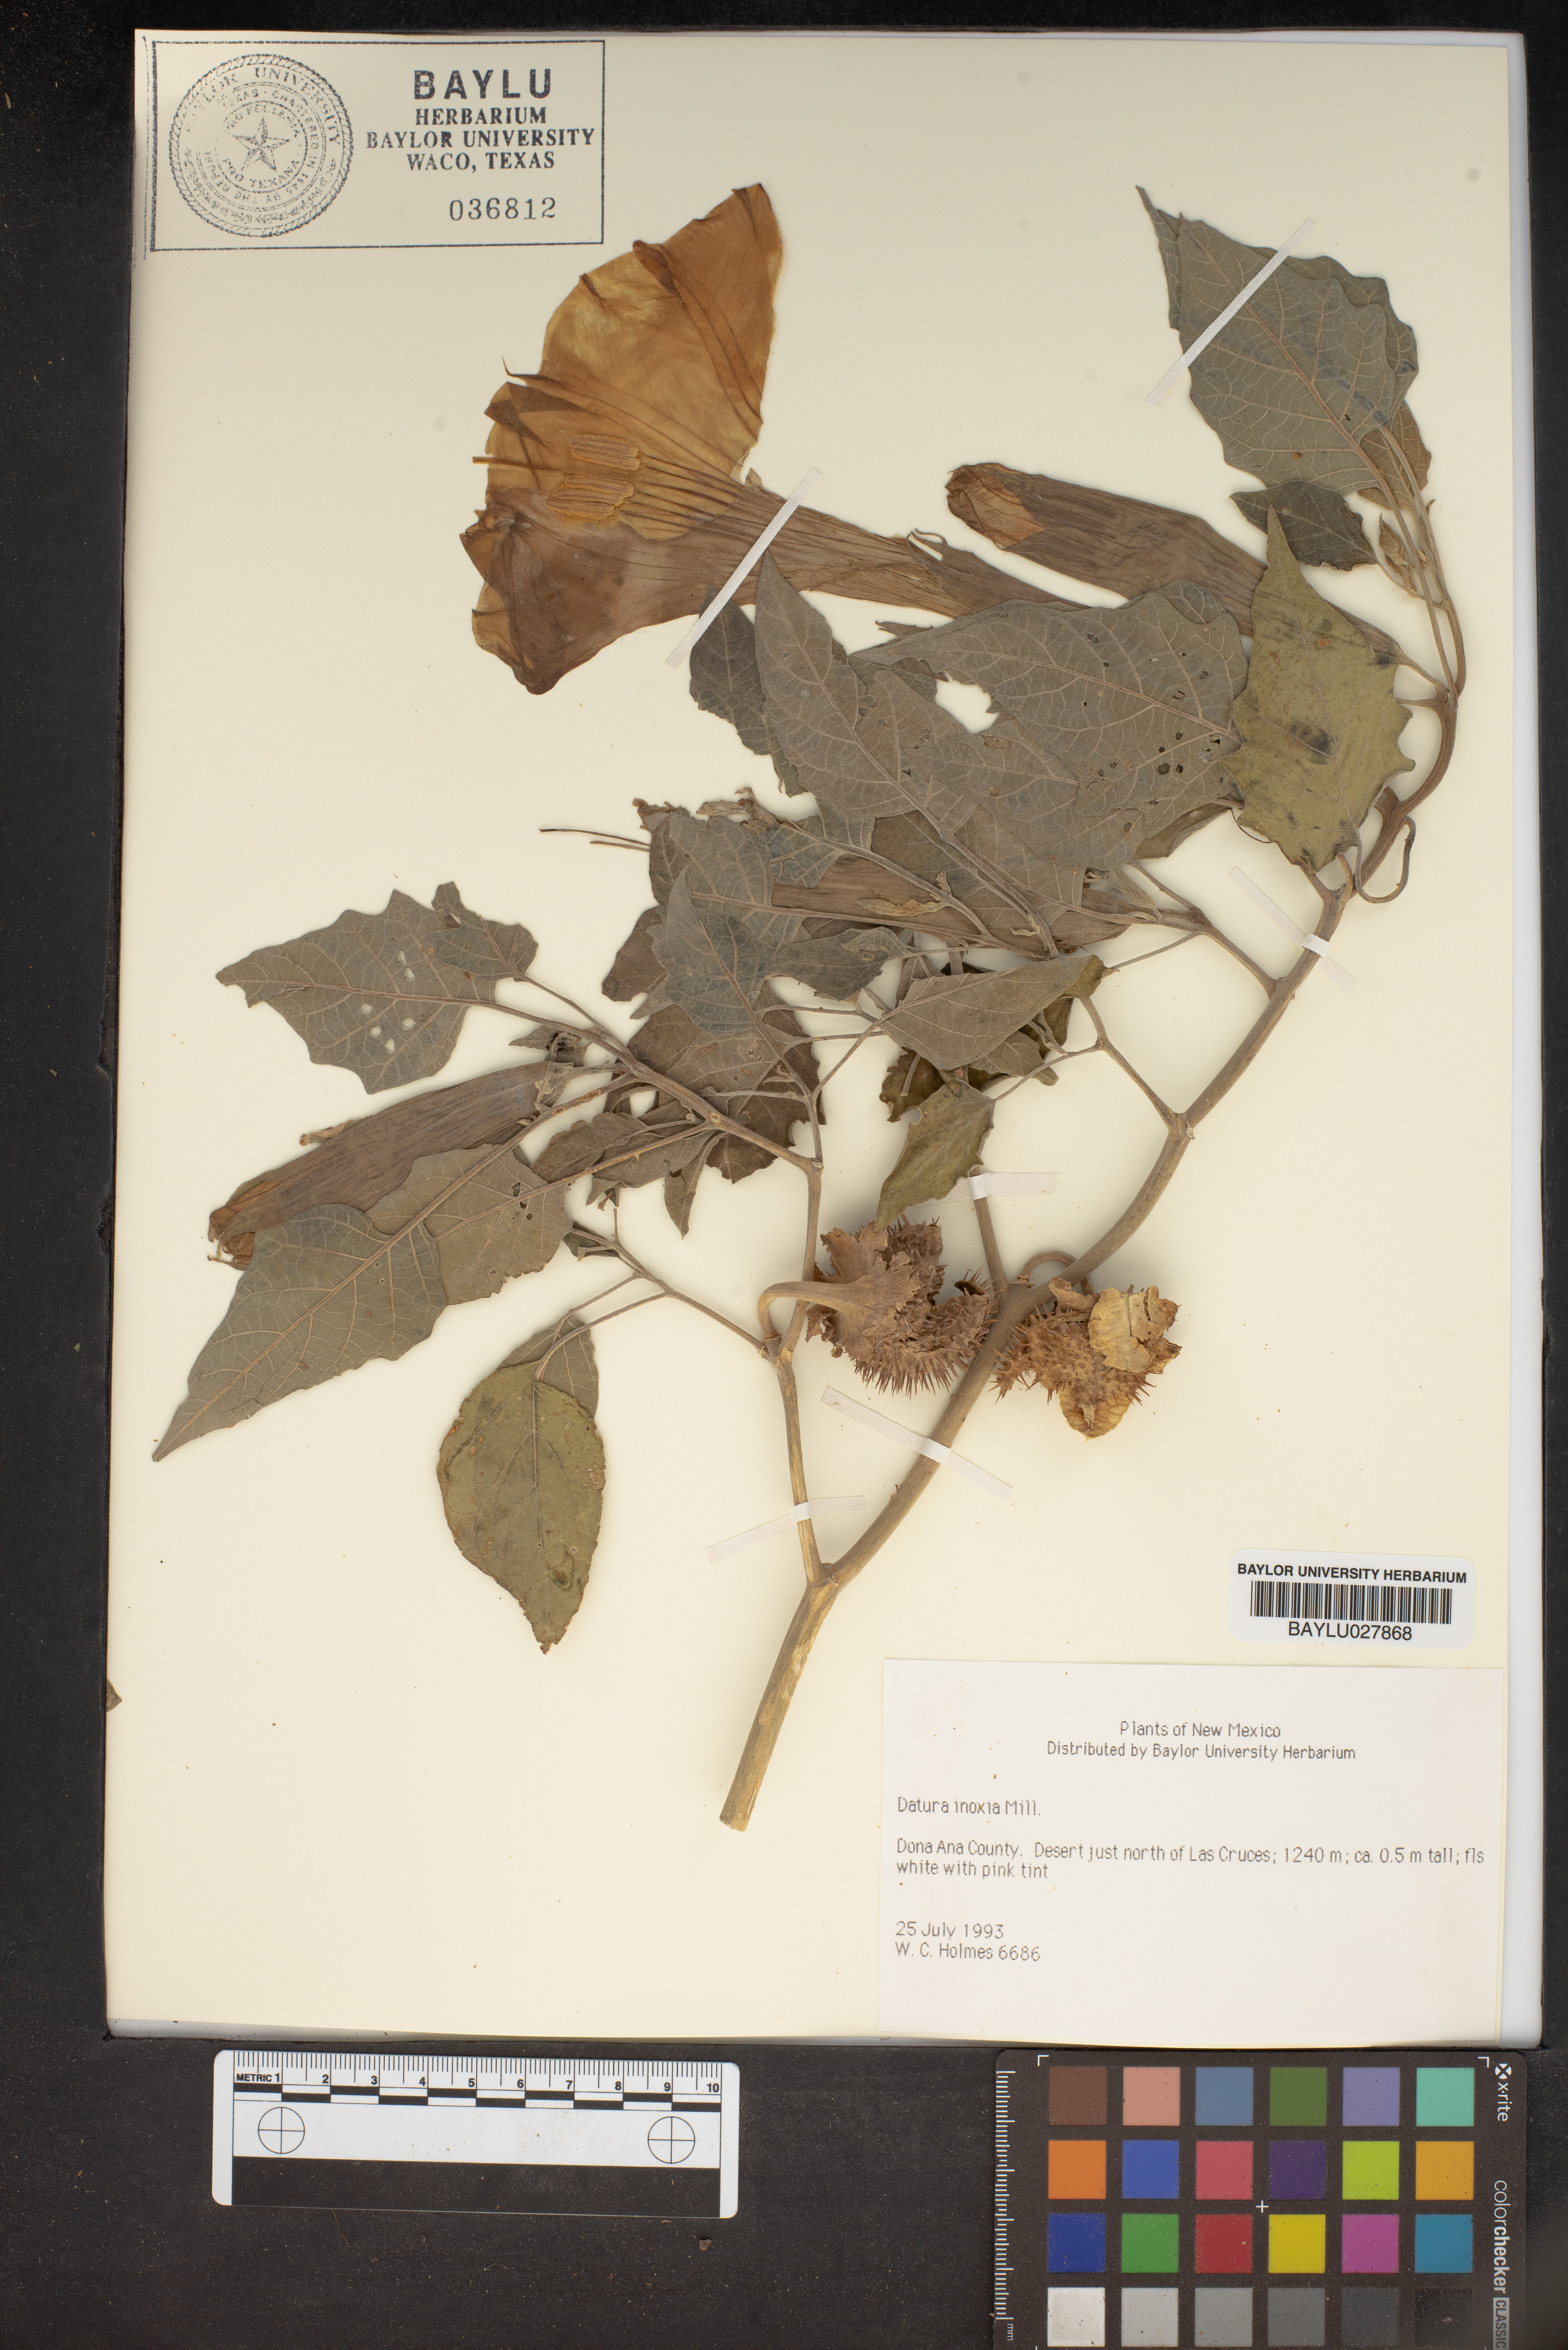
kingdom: Plantae
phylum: Tracheophyta
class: Magnoliopsida
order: Solanales
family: Solanaceae
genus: Datura
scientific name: Datura innoxia
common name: Downy thorn-apple
